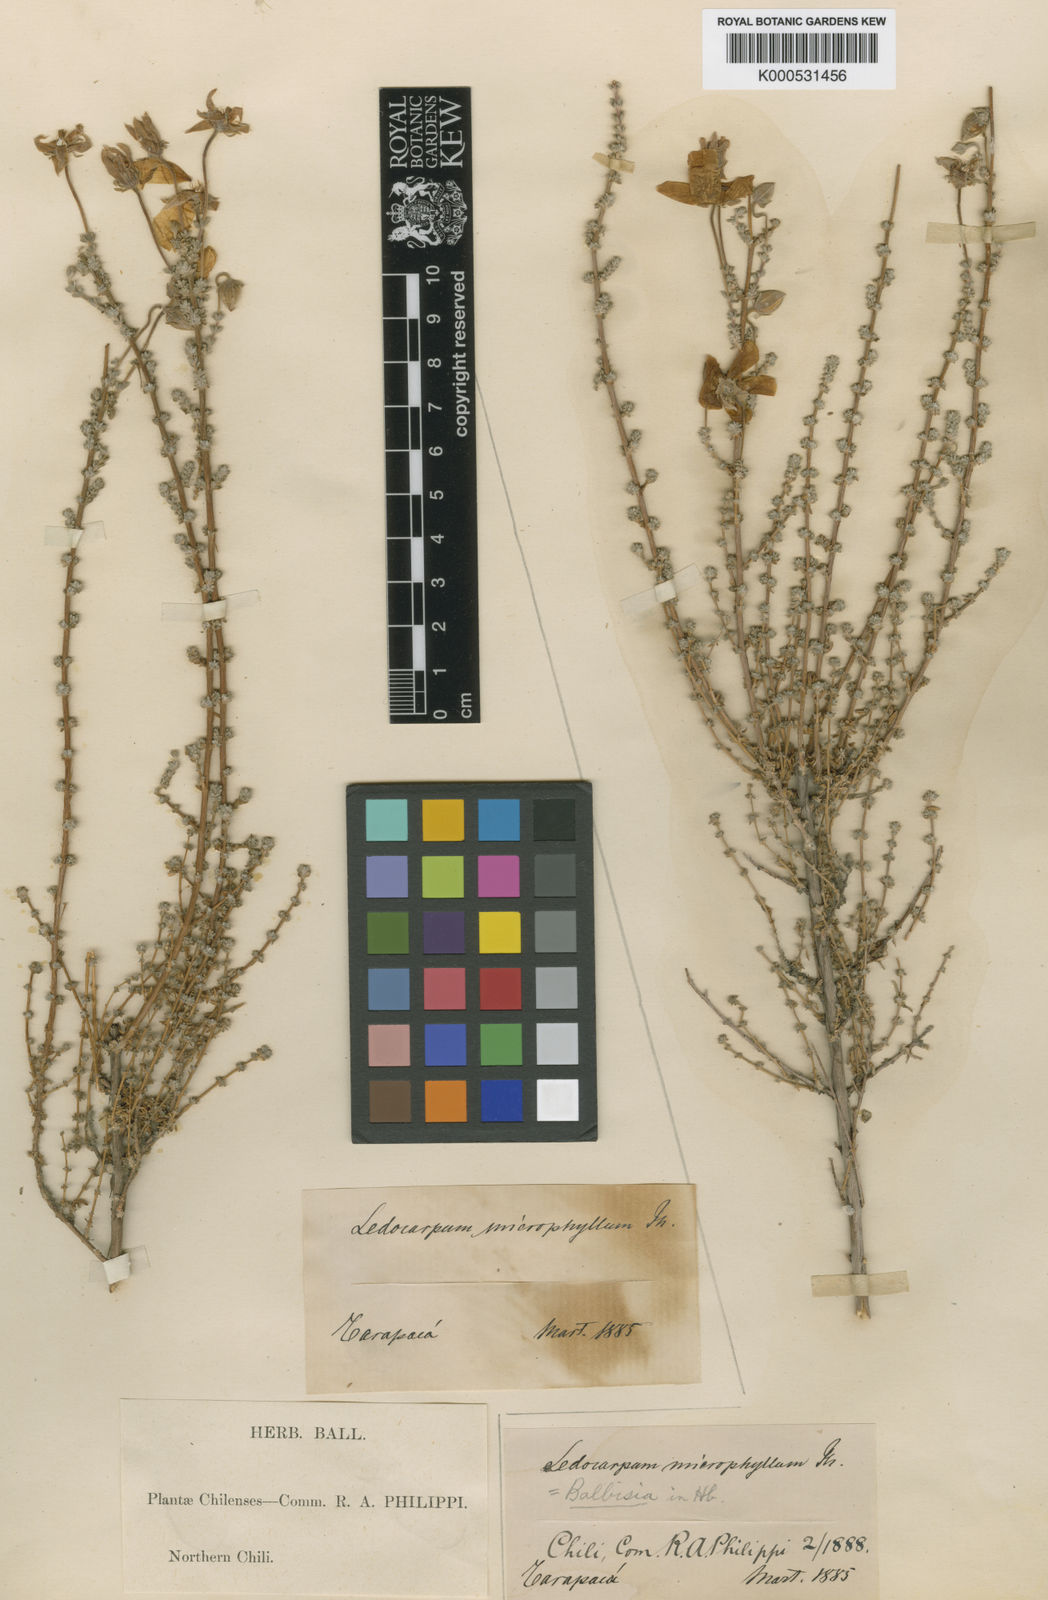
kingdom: Plantae
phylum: Tracheophyta
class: Magnoliopsida
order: Geraniales
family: Vivianiaceae
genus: Balbisia
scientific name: Balbisia microphylla
